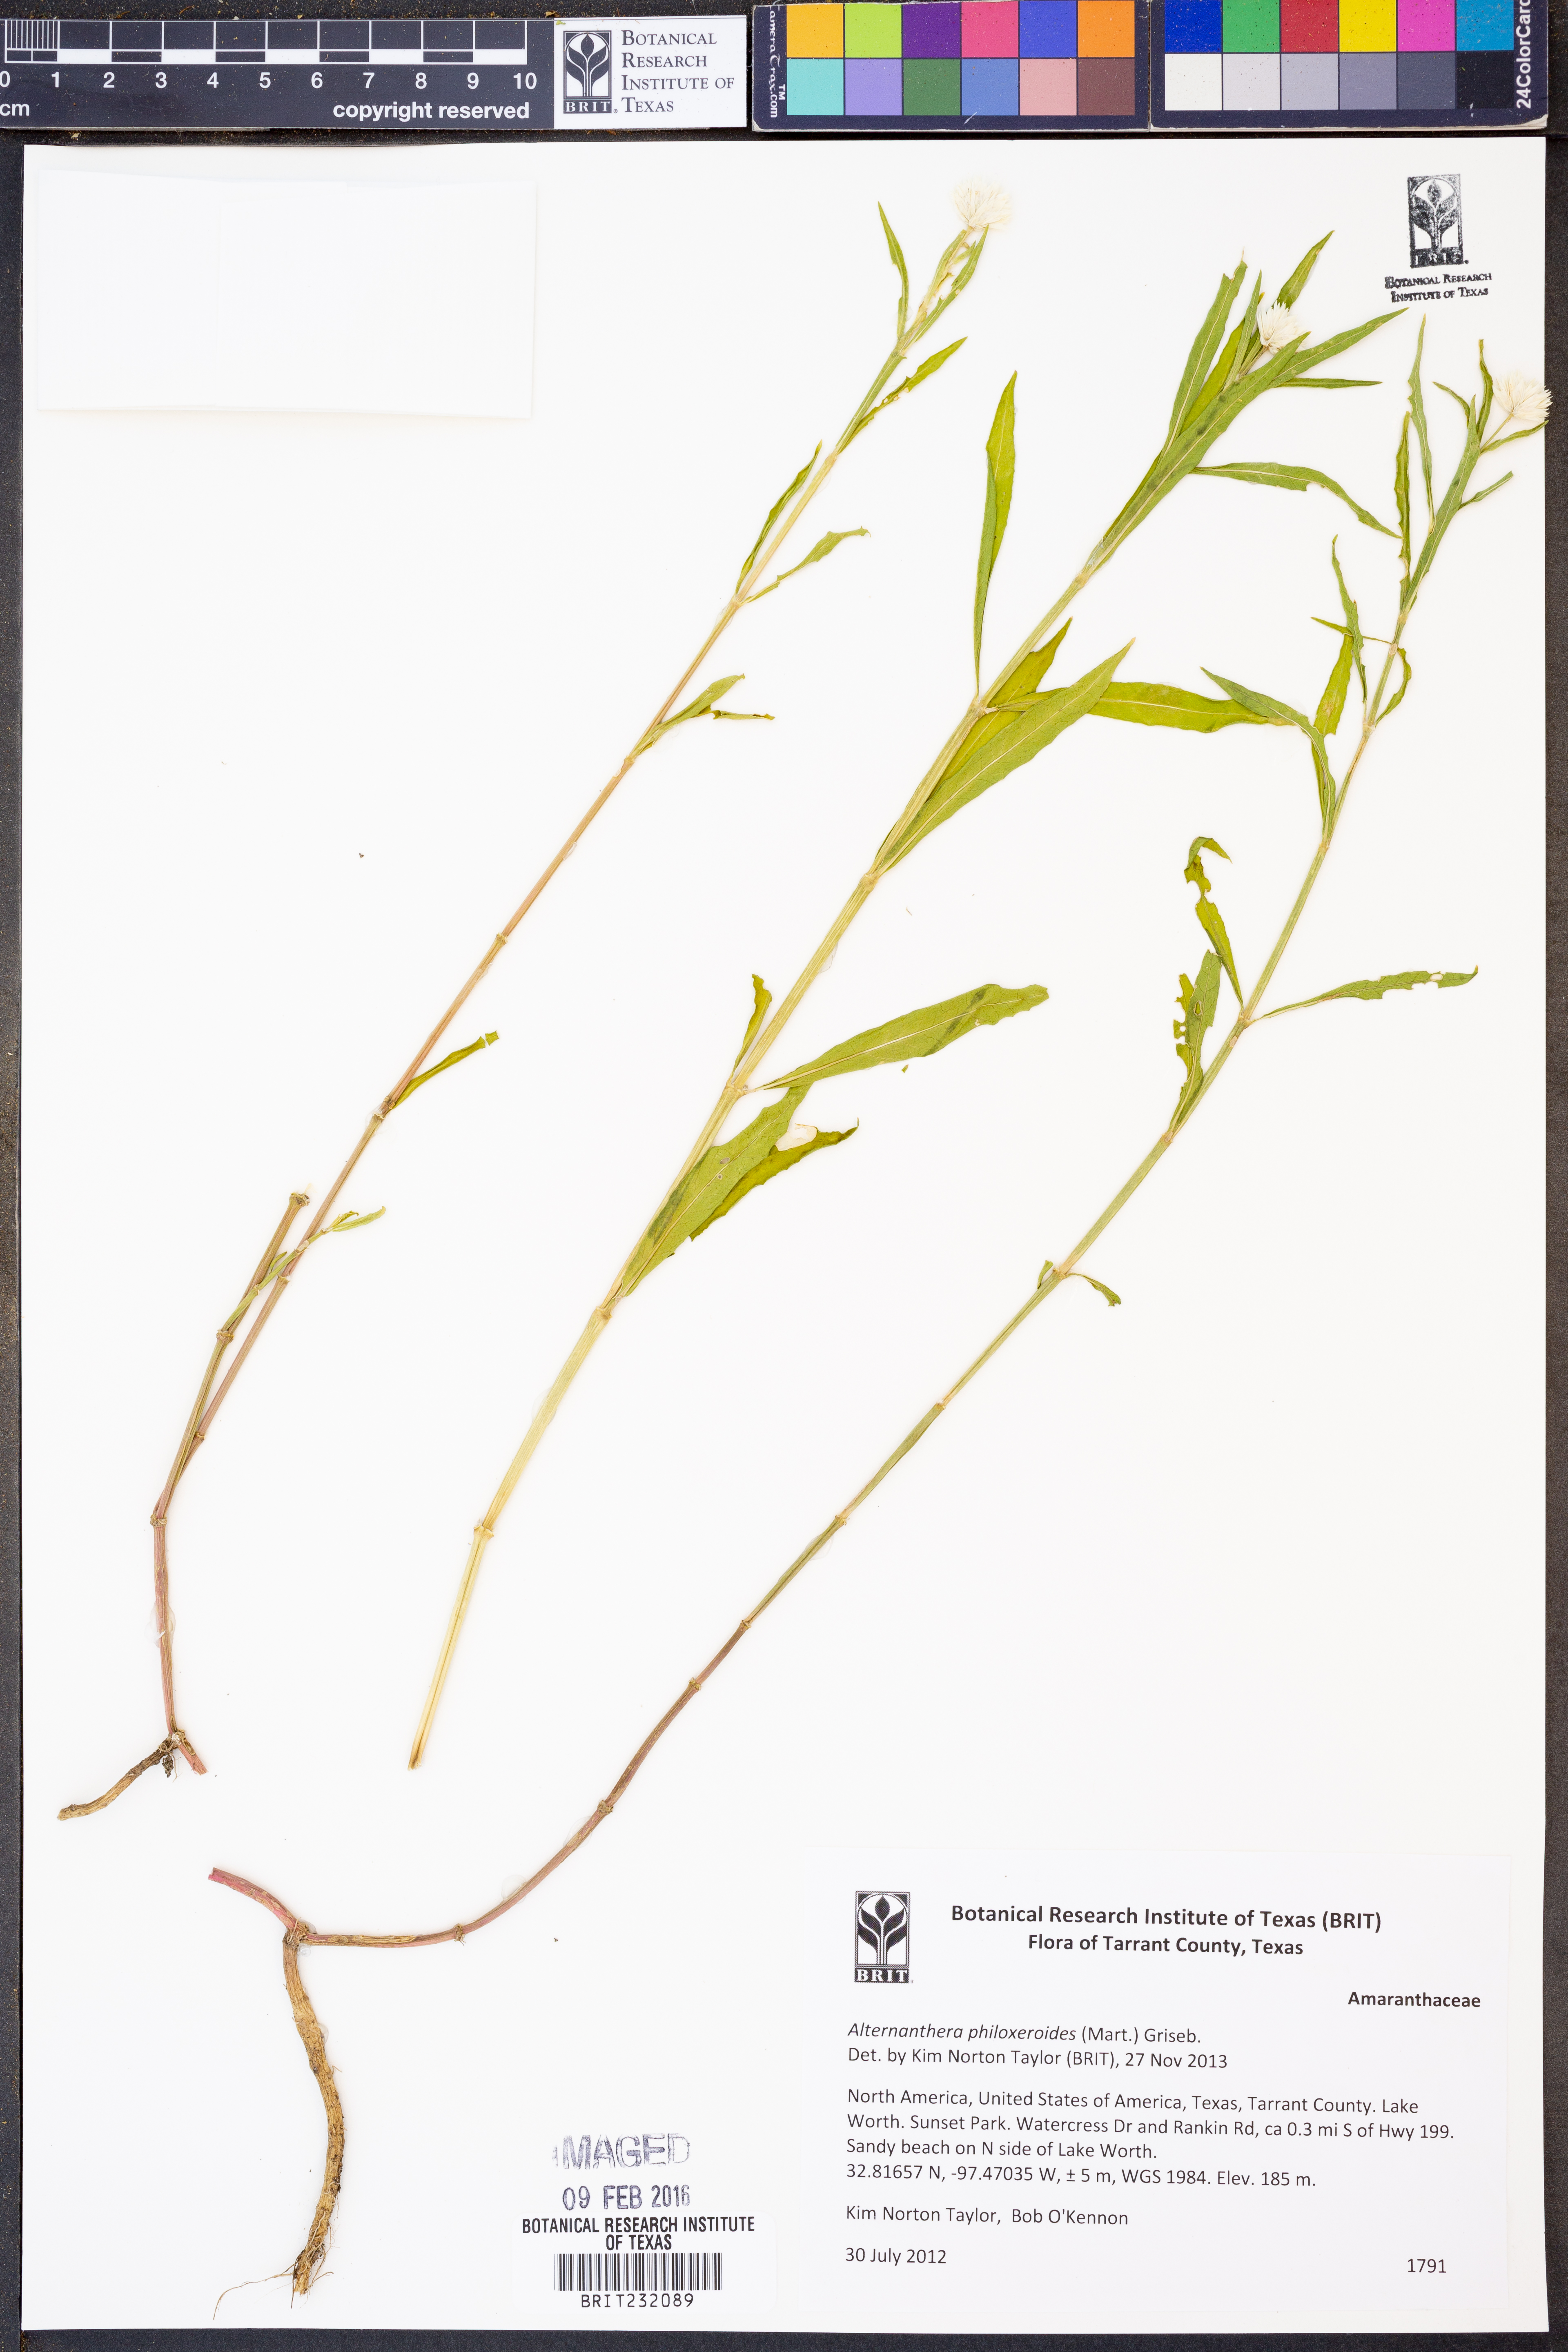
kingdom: Plantae
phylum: Tracheophyta
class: Magnoliopsida
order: Caryophyllales
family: Amaranthaceae
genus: Alternanthera
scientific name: Alternanthera philoxeroides
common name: Alligatorweed
